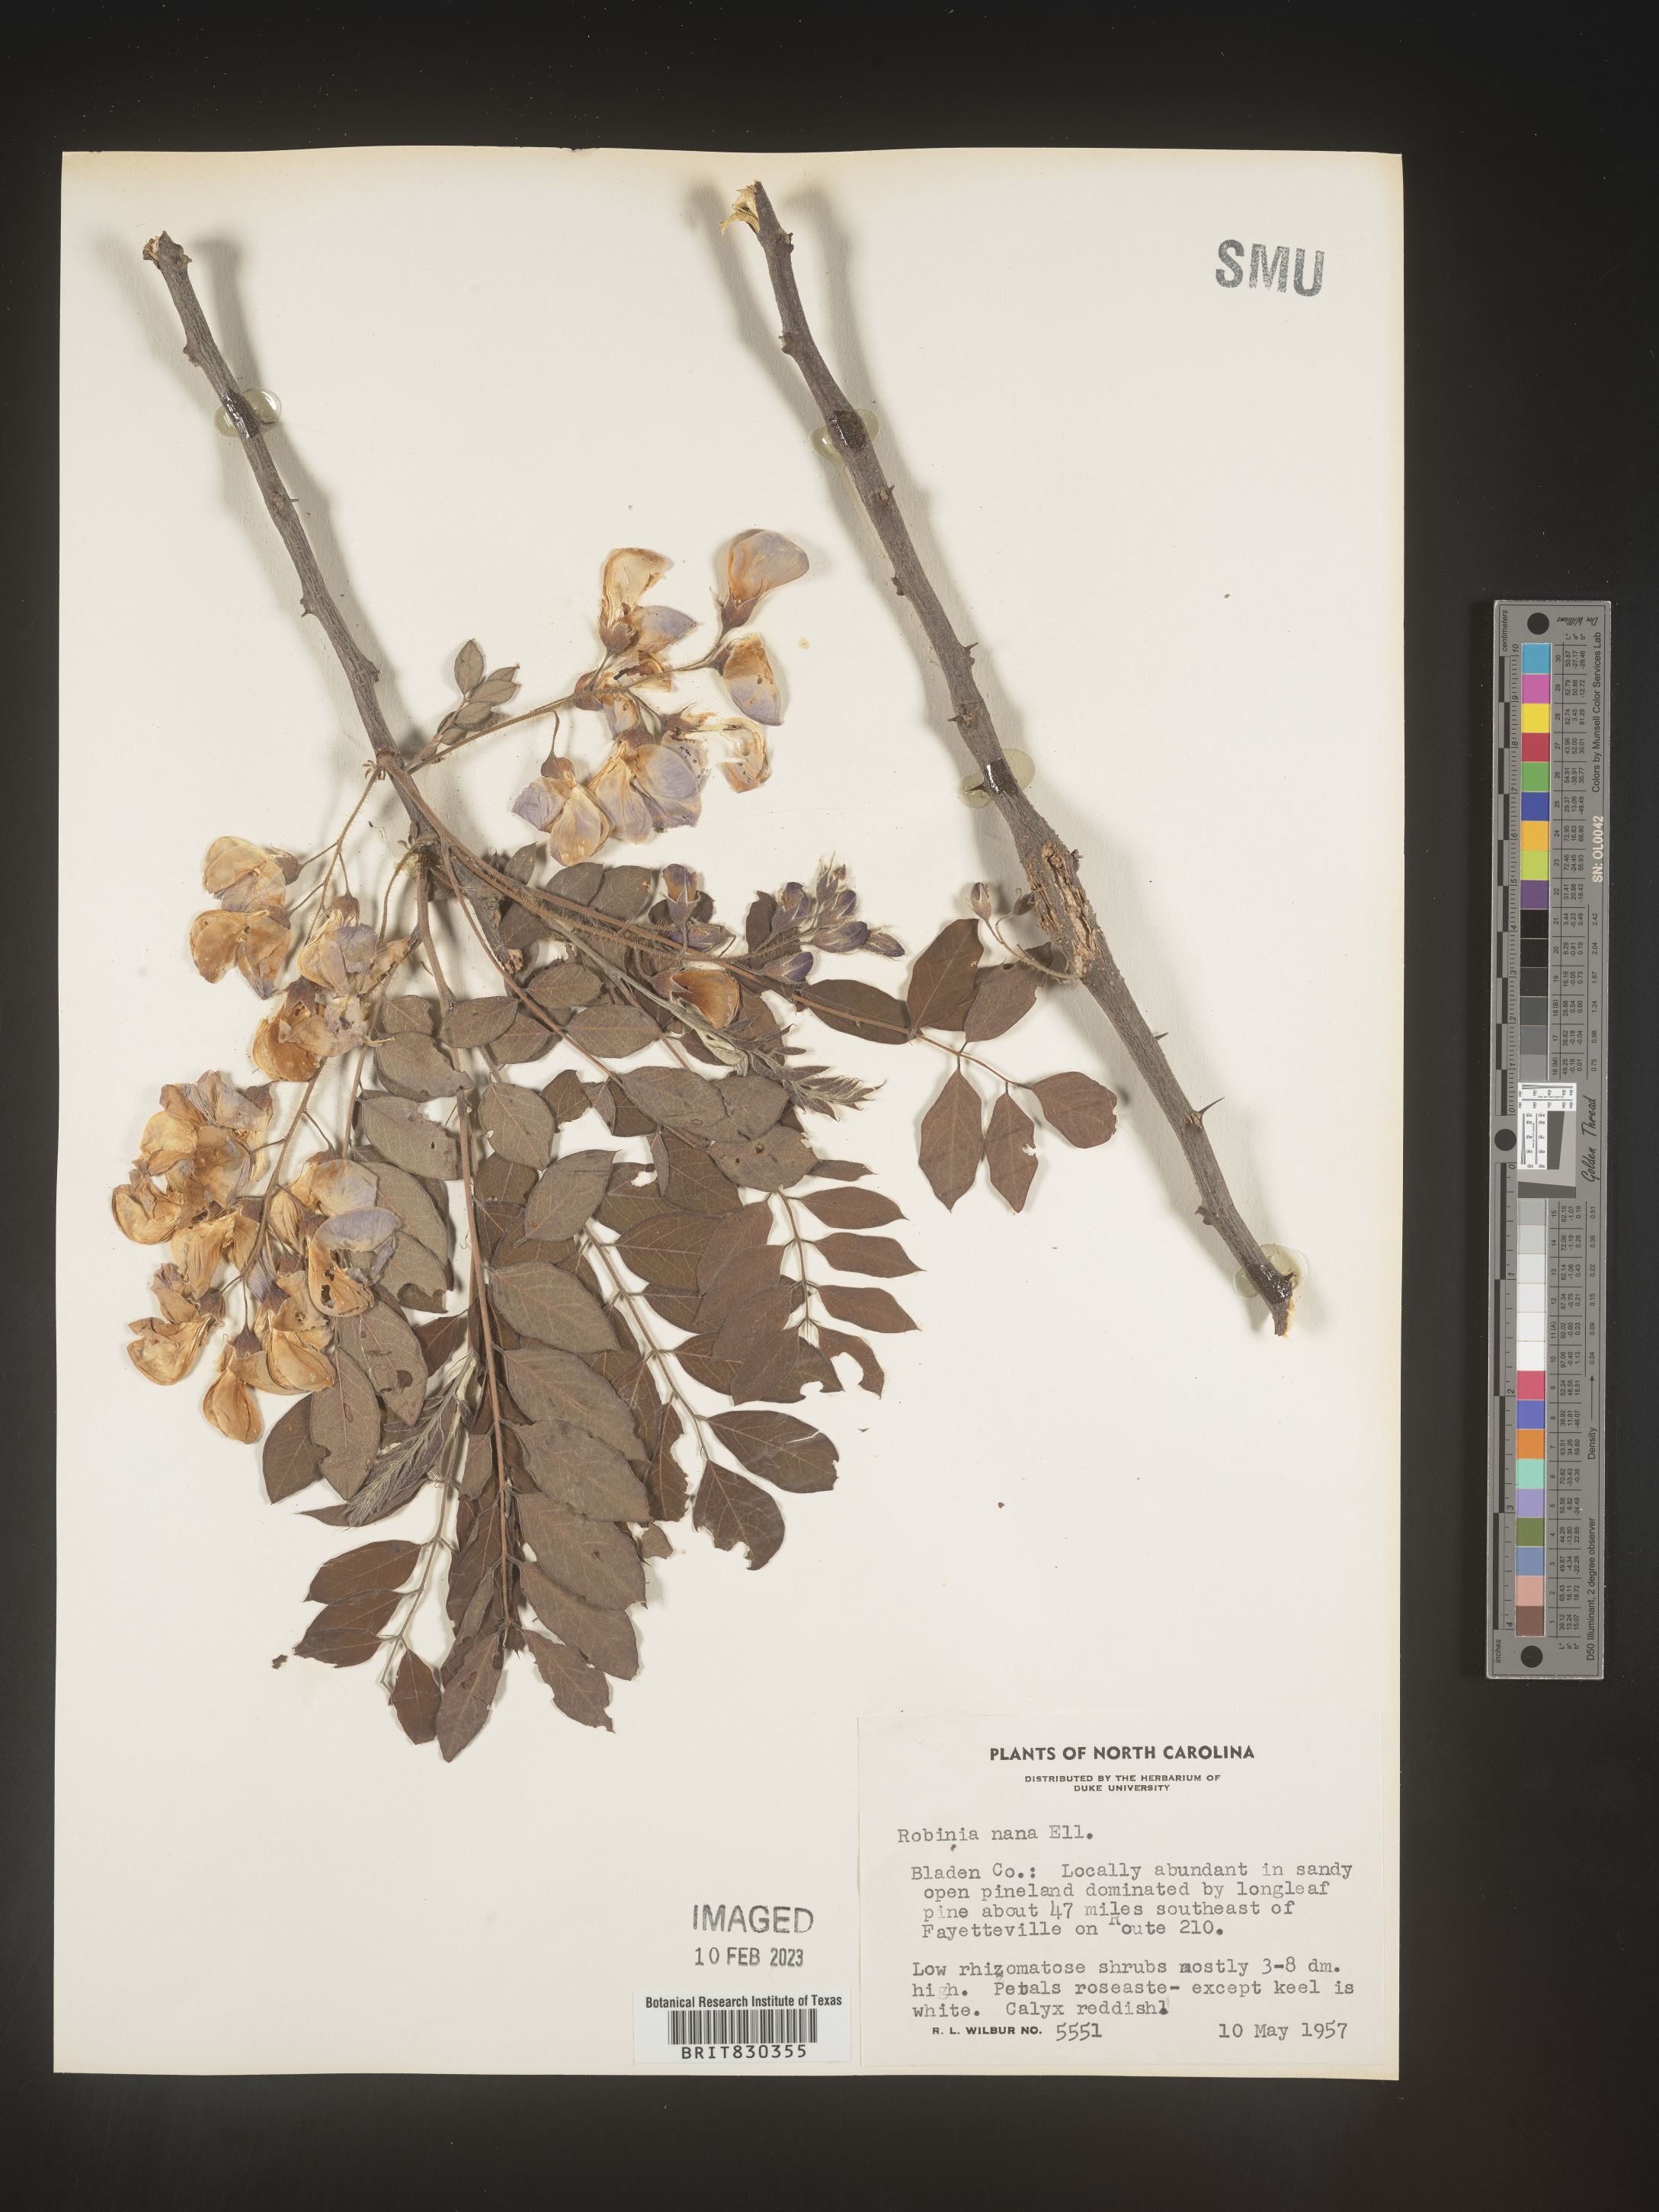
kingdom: Plantae
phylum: Tracheophyta
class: Magnoliopsida
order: Fabales
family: Fabaceae
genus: Robinia
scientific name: Robinia
